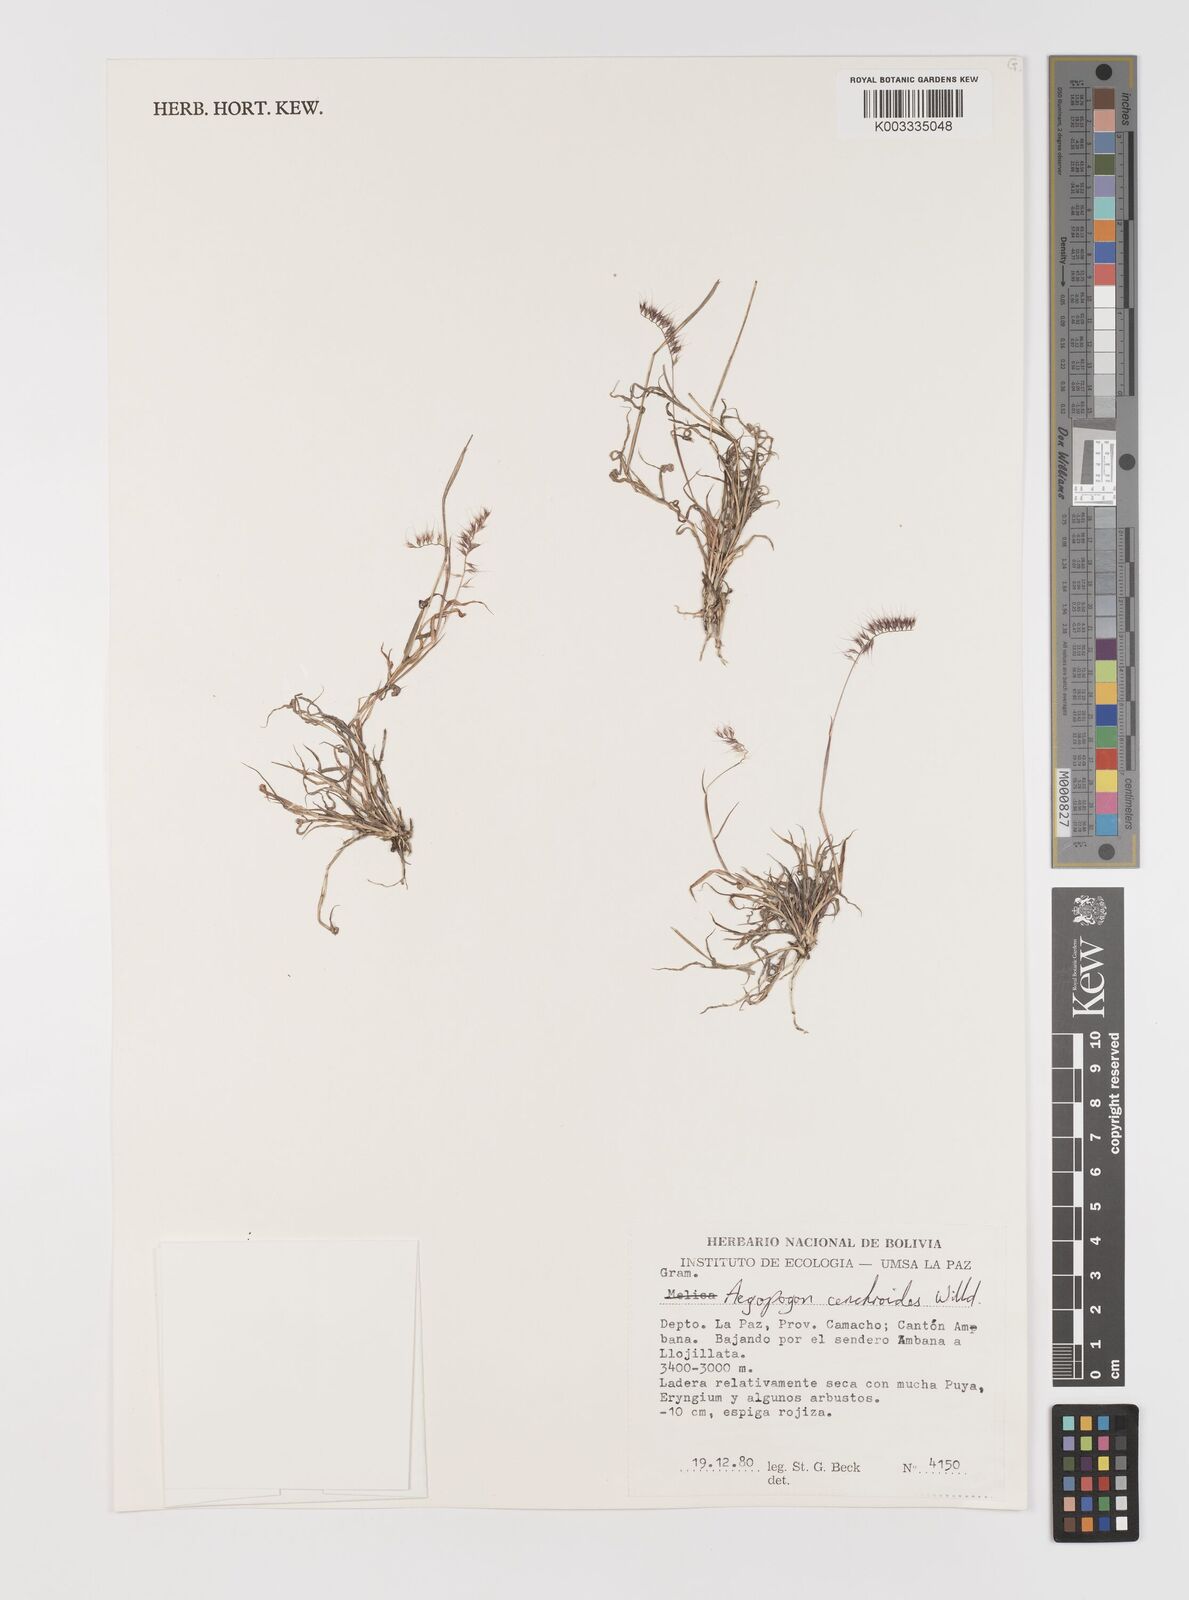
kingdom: Plantae
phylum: Tracheophyta
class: Liliopsida
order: Poales
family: Poaceae
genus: Muhlenbergia
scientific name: Muhlenbergia cenchroides
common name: Relaxgrass
